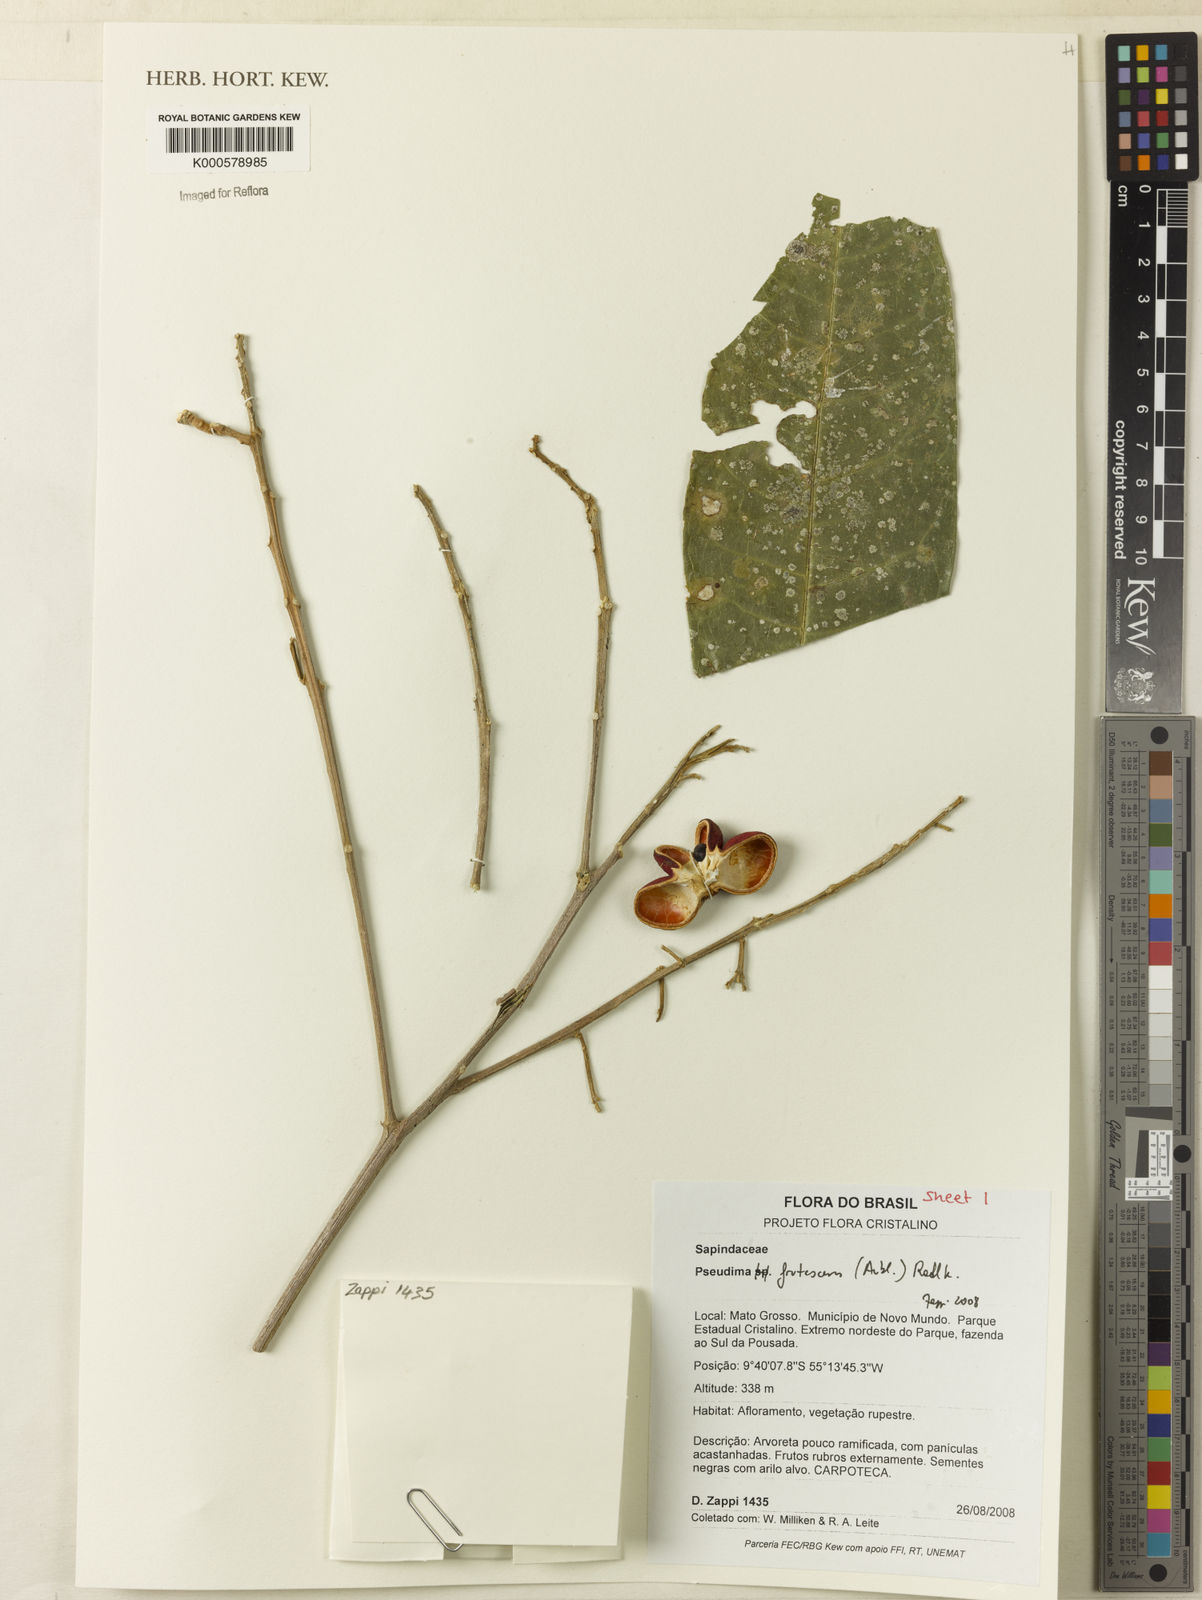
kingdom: Plantae
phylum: Tracheophyta
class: Magnoliopsida
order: Sapindales
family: Sapindaceae
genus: Pseudima
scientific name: Pseudima frutescens
